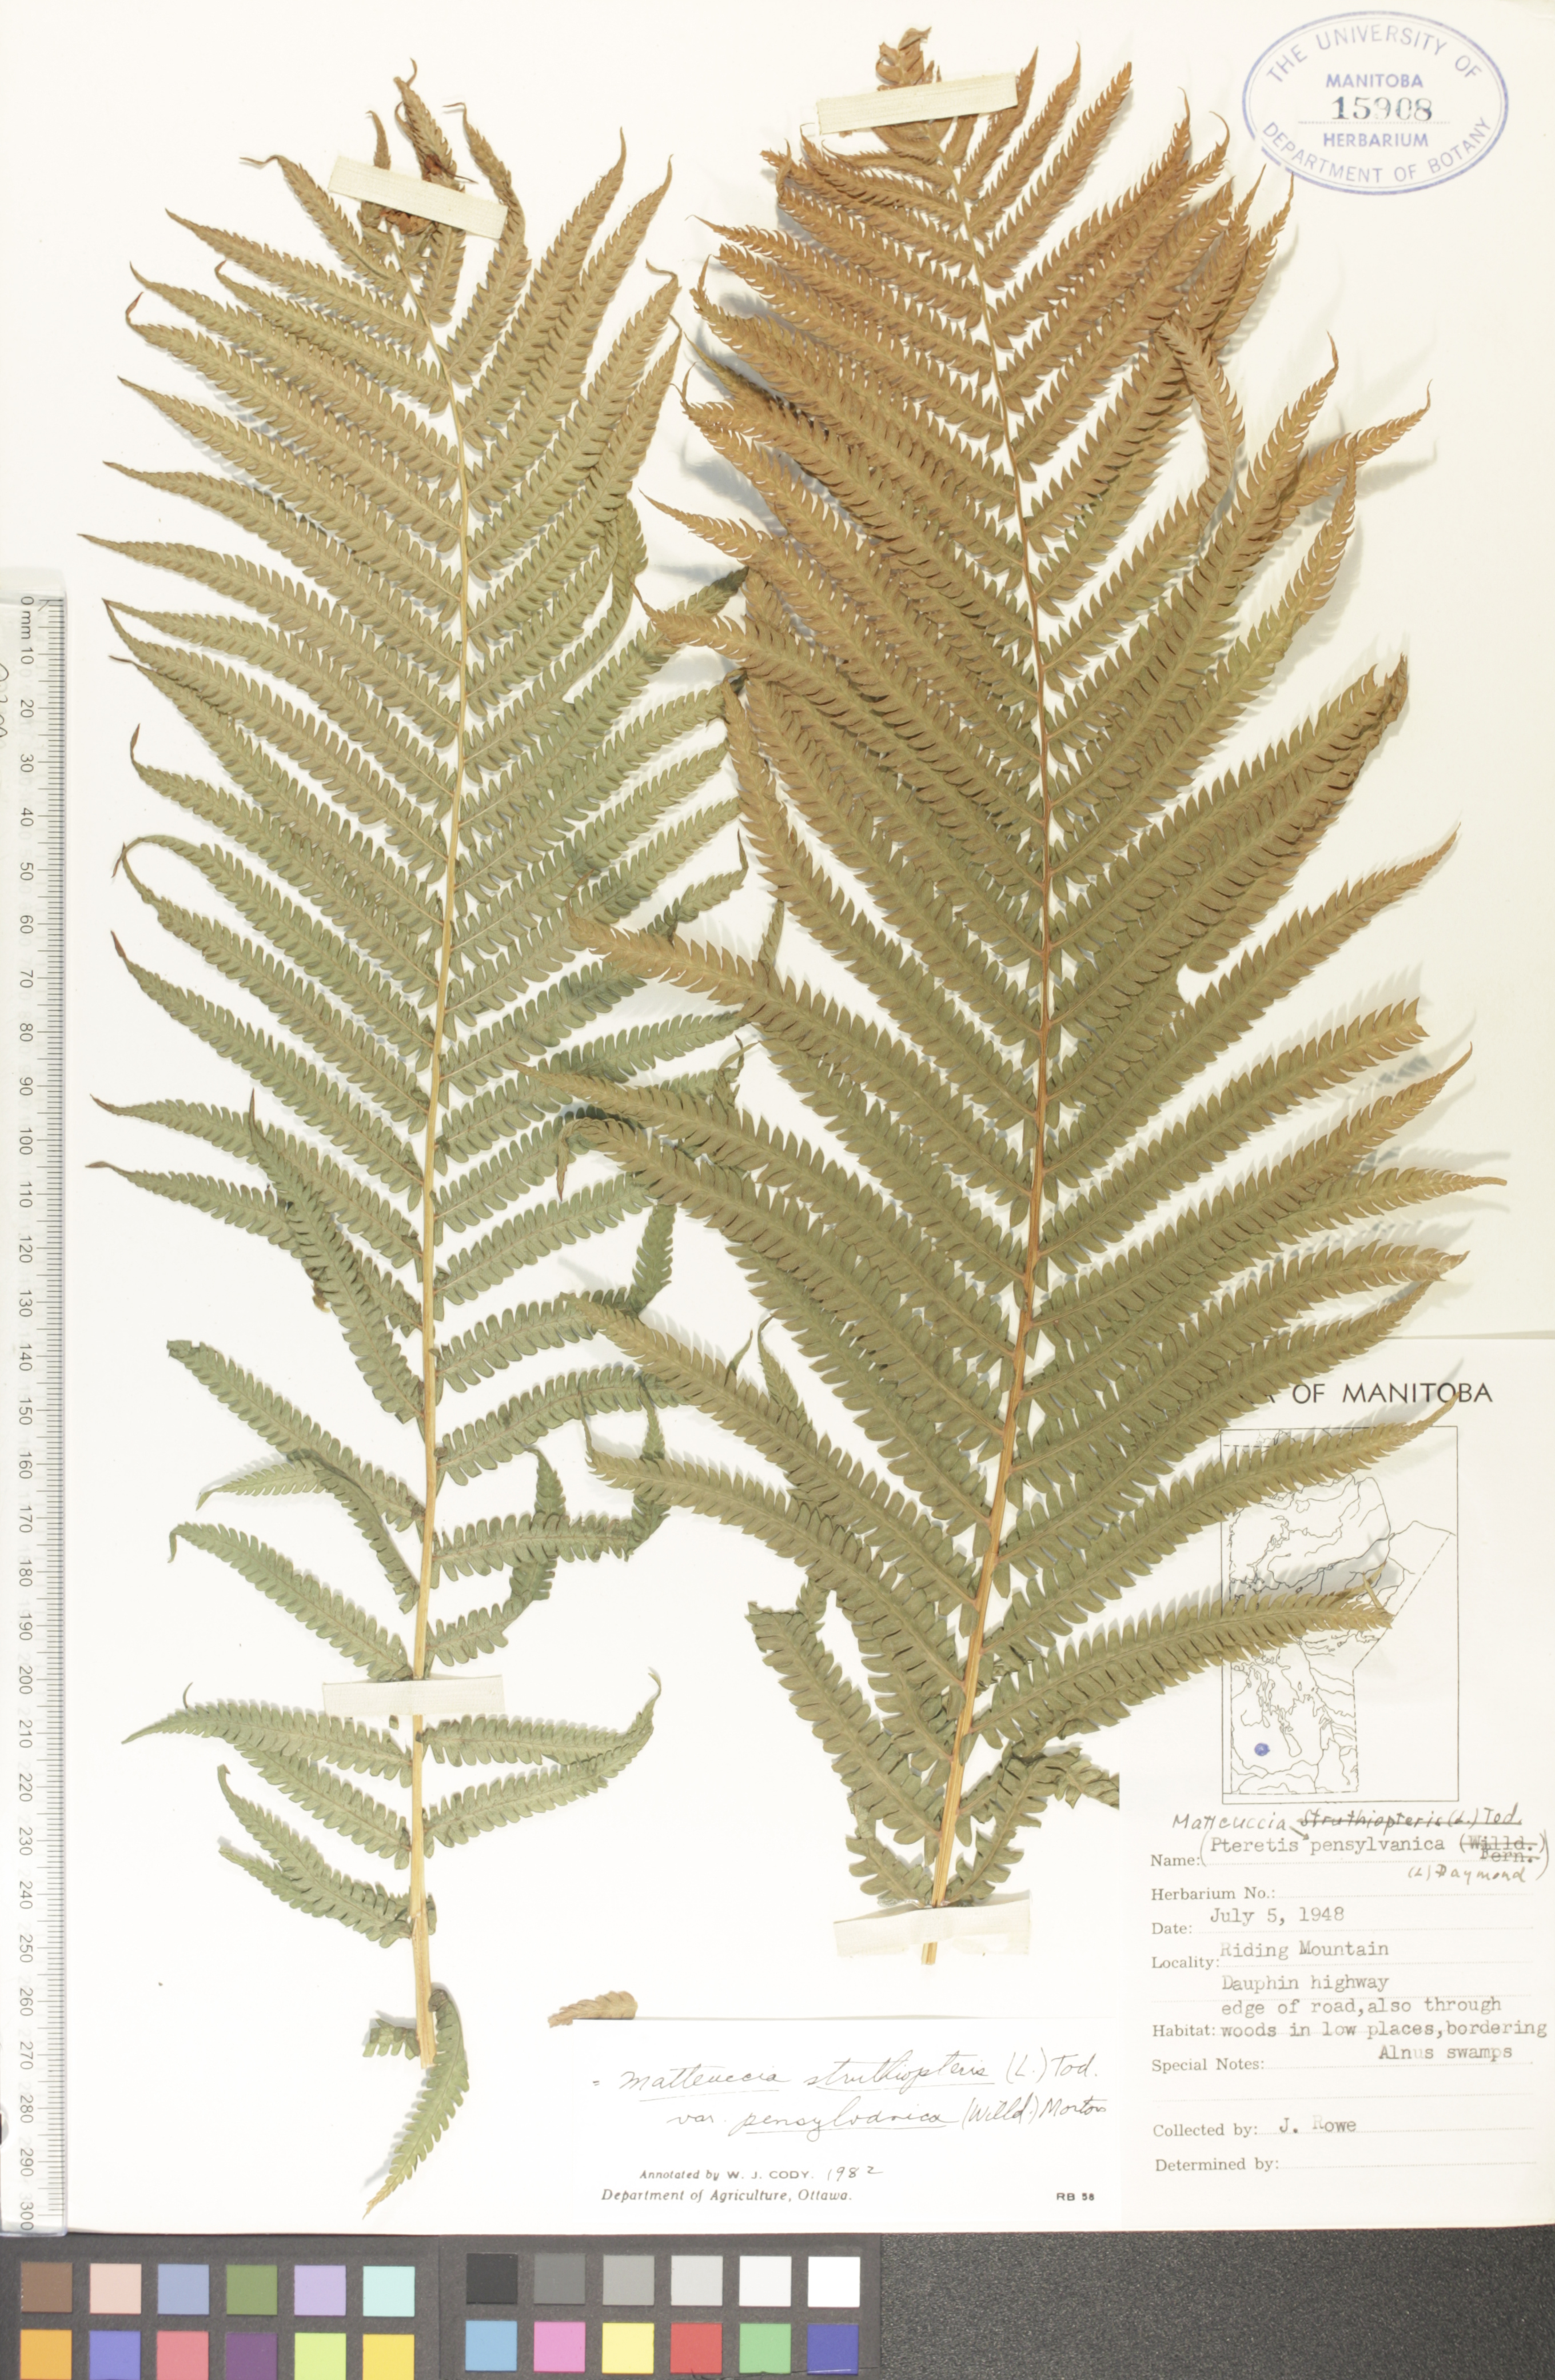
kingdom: Plantae
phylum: Tracheophyta
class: Polypodiopsida
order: Polypodiales
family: Onocleaceae
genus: Matteuccia
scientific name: Matteuccia pensylvanica
